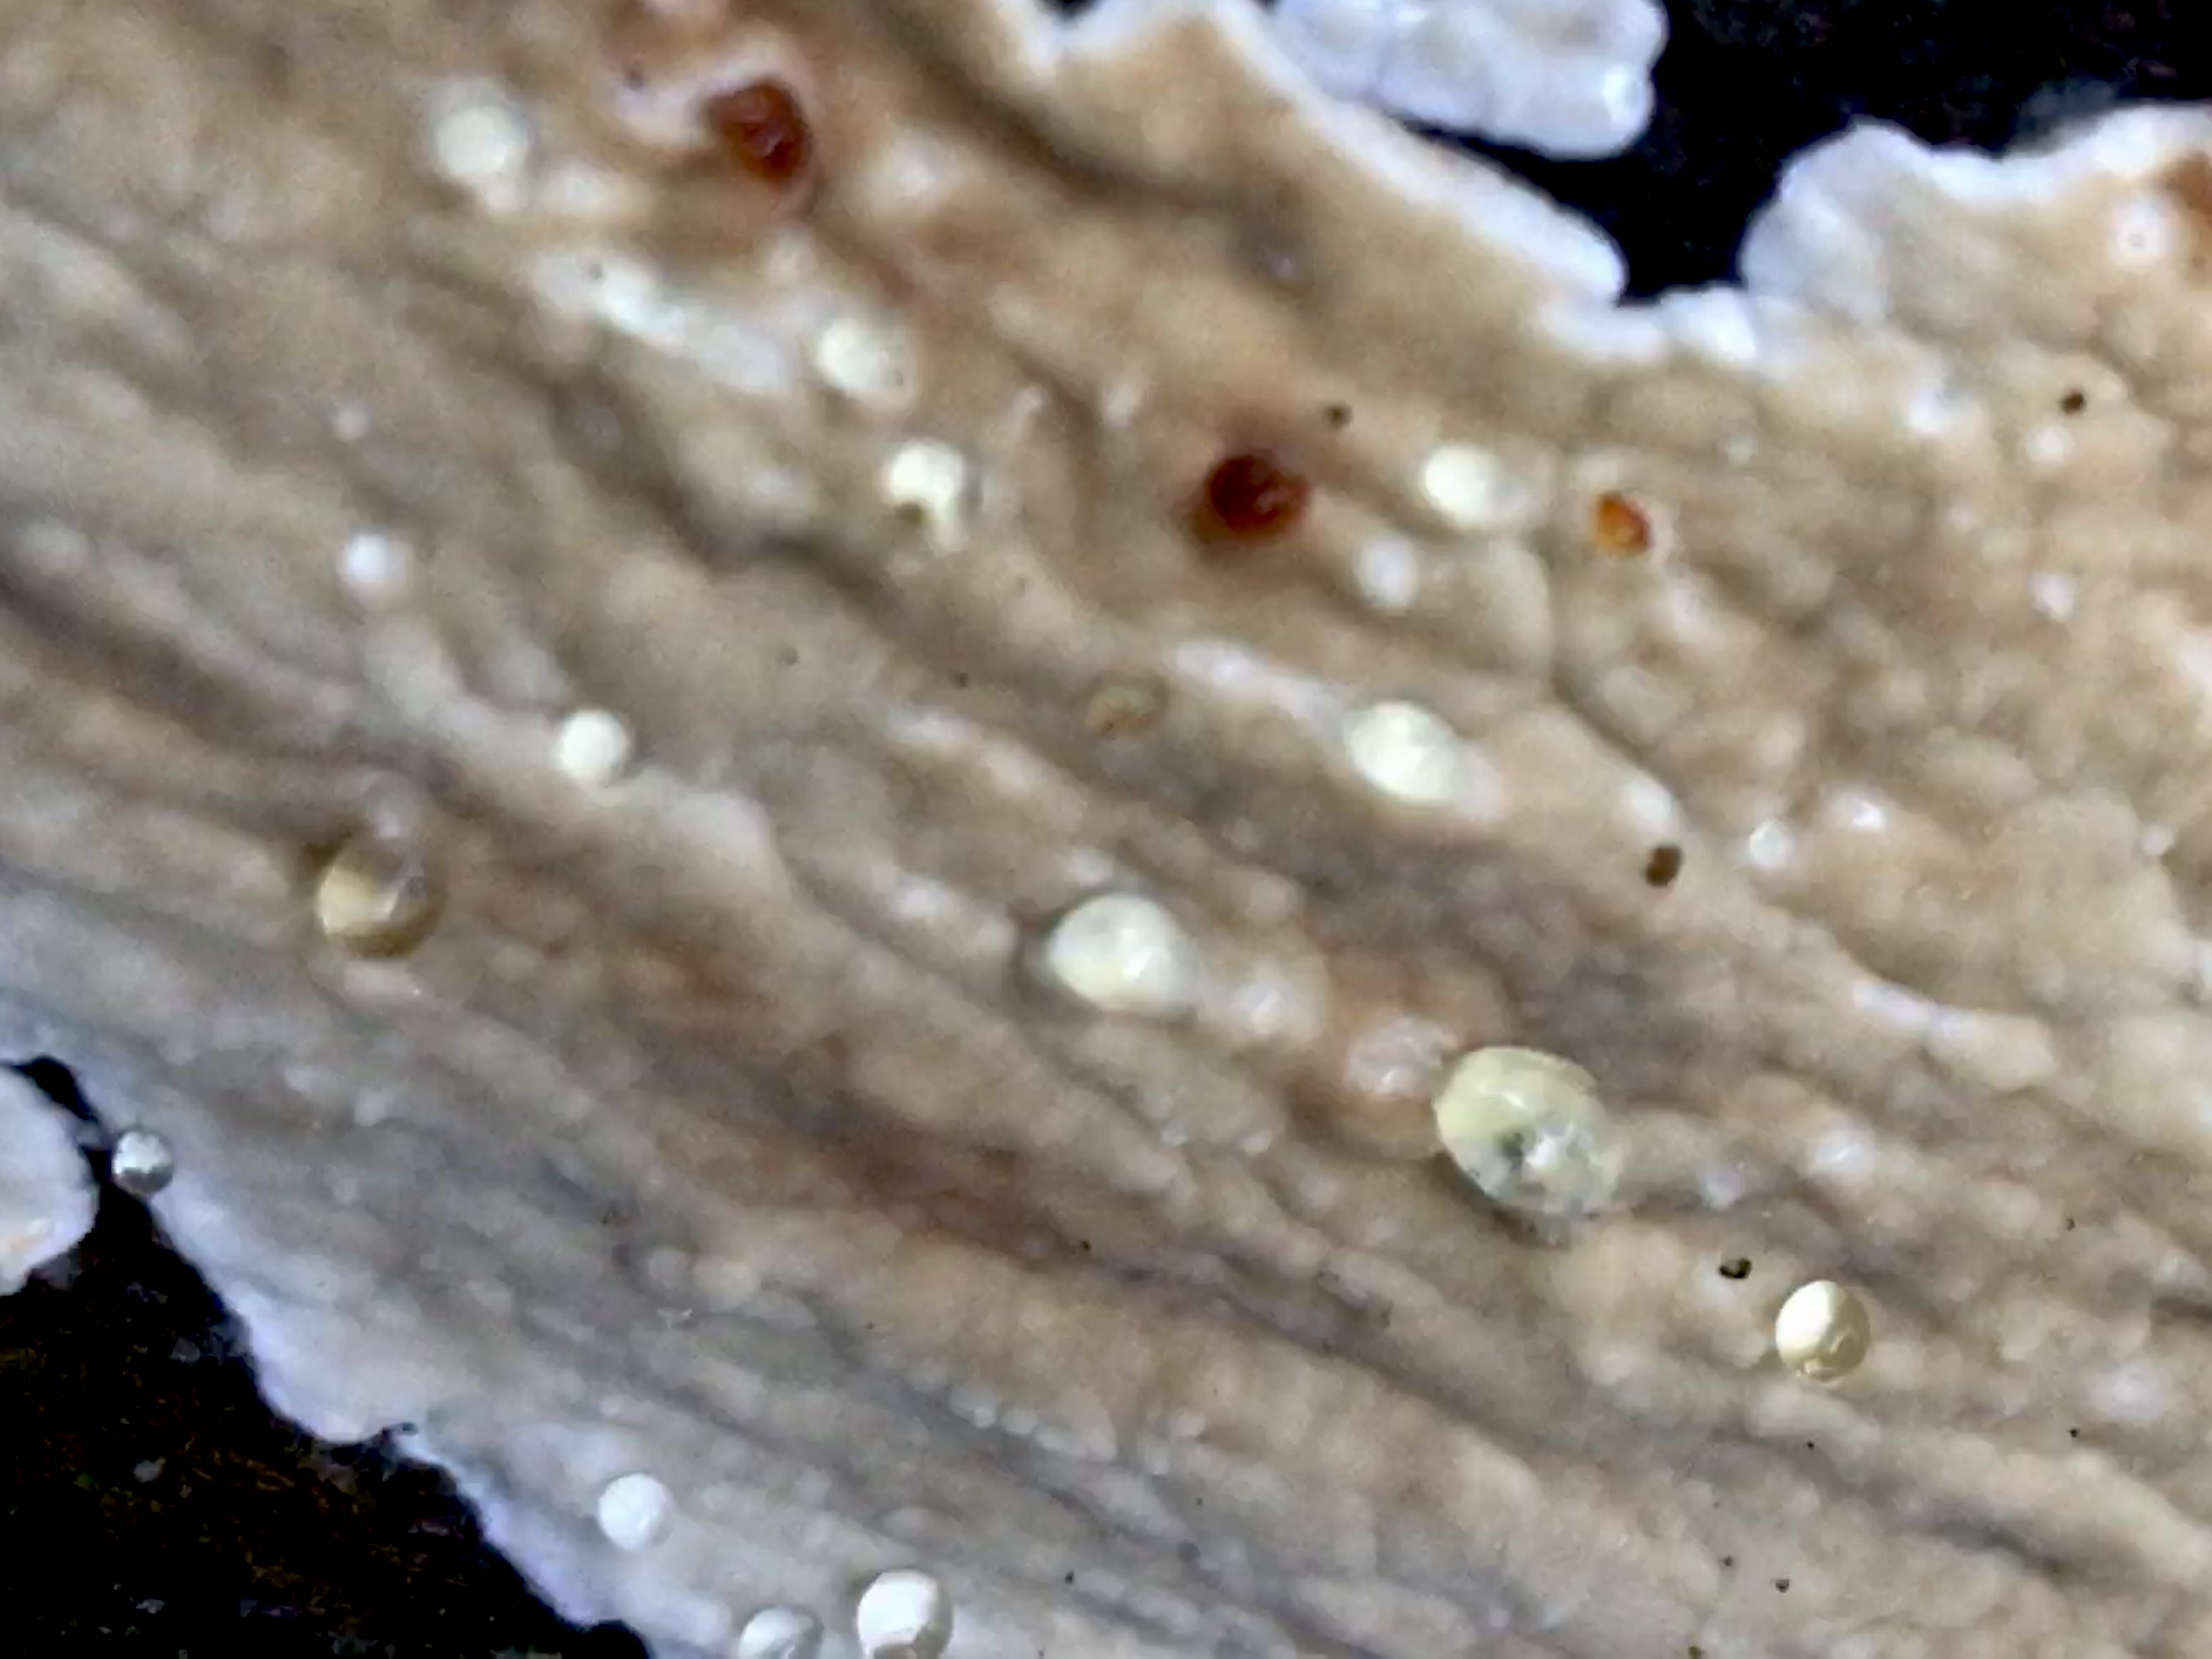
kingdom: Fungi
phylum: Basidiomycota
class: Agaricomycetes
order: Polyporales
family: Dacryobolaceae
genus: Dacryobolus
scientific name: Dacryobolus karstenii
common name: glat vulkanskorpe
